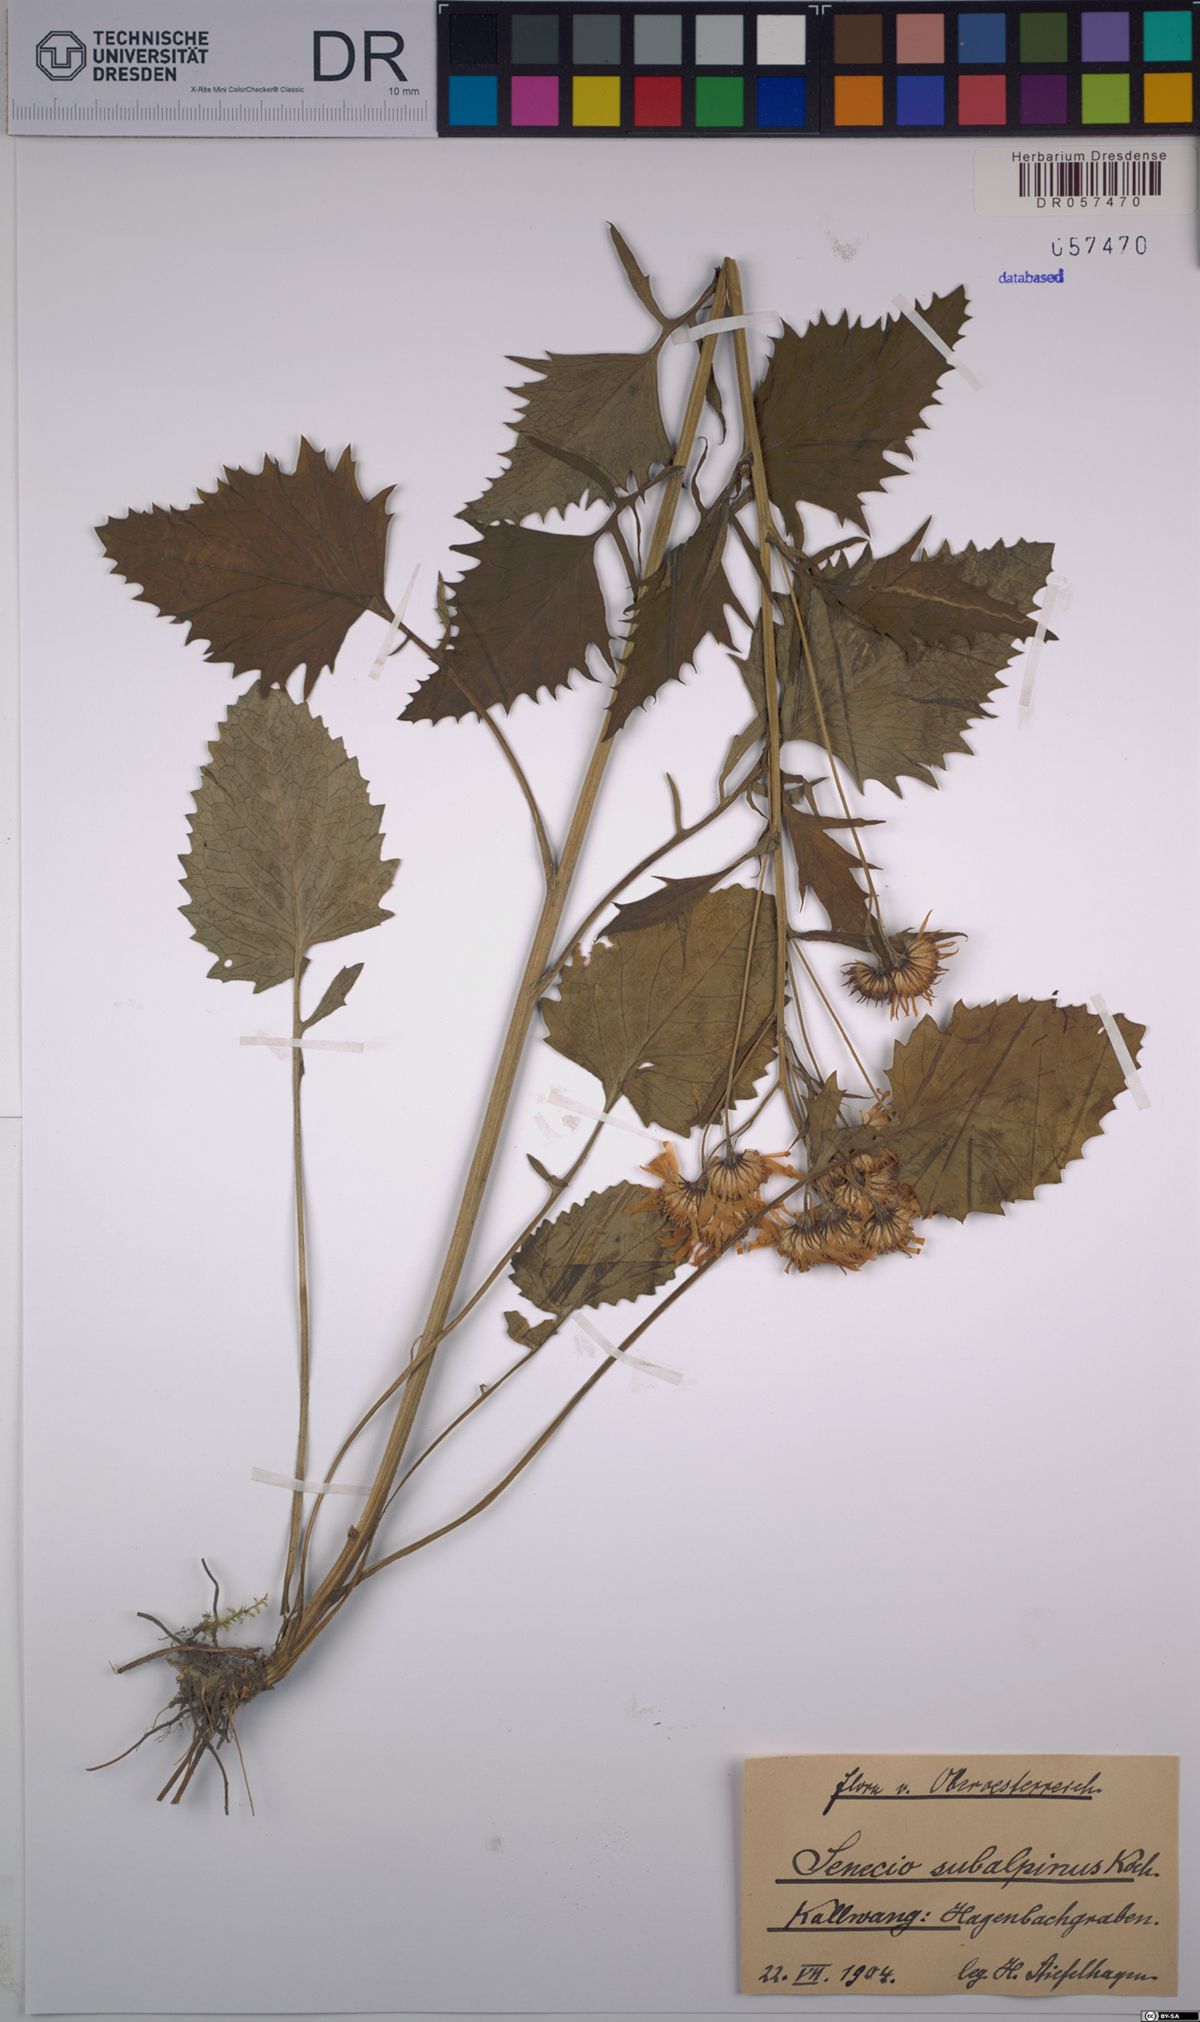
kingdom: Plantae
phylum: Tracheophyta
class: Magnoliopsida
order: Asterales
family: Asteraceae
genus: Jacobaea
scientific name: Jacobaea subalpina
